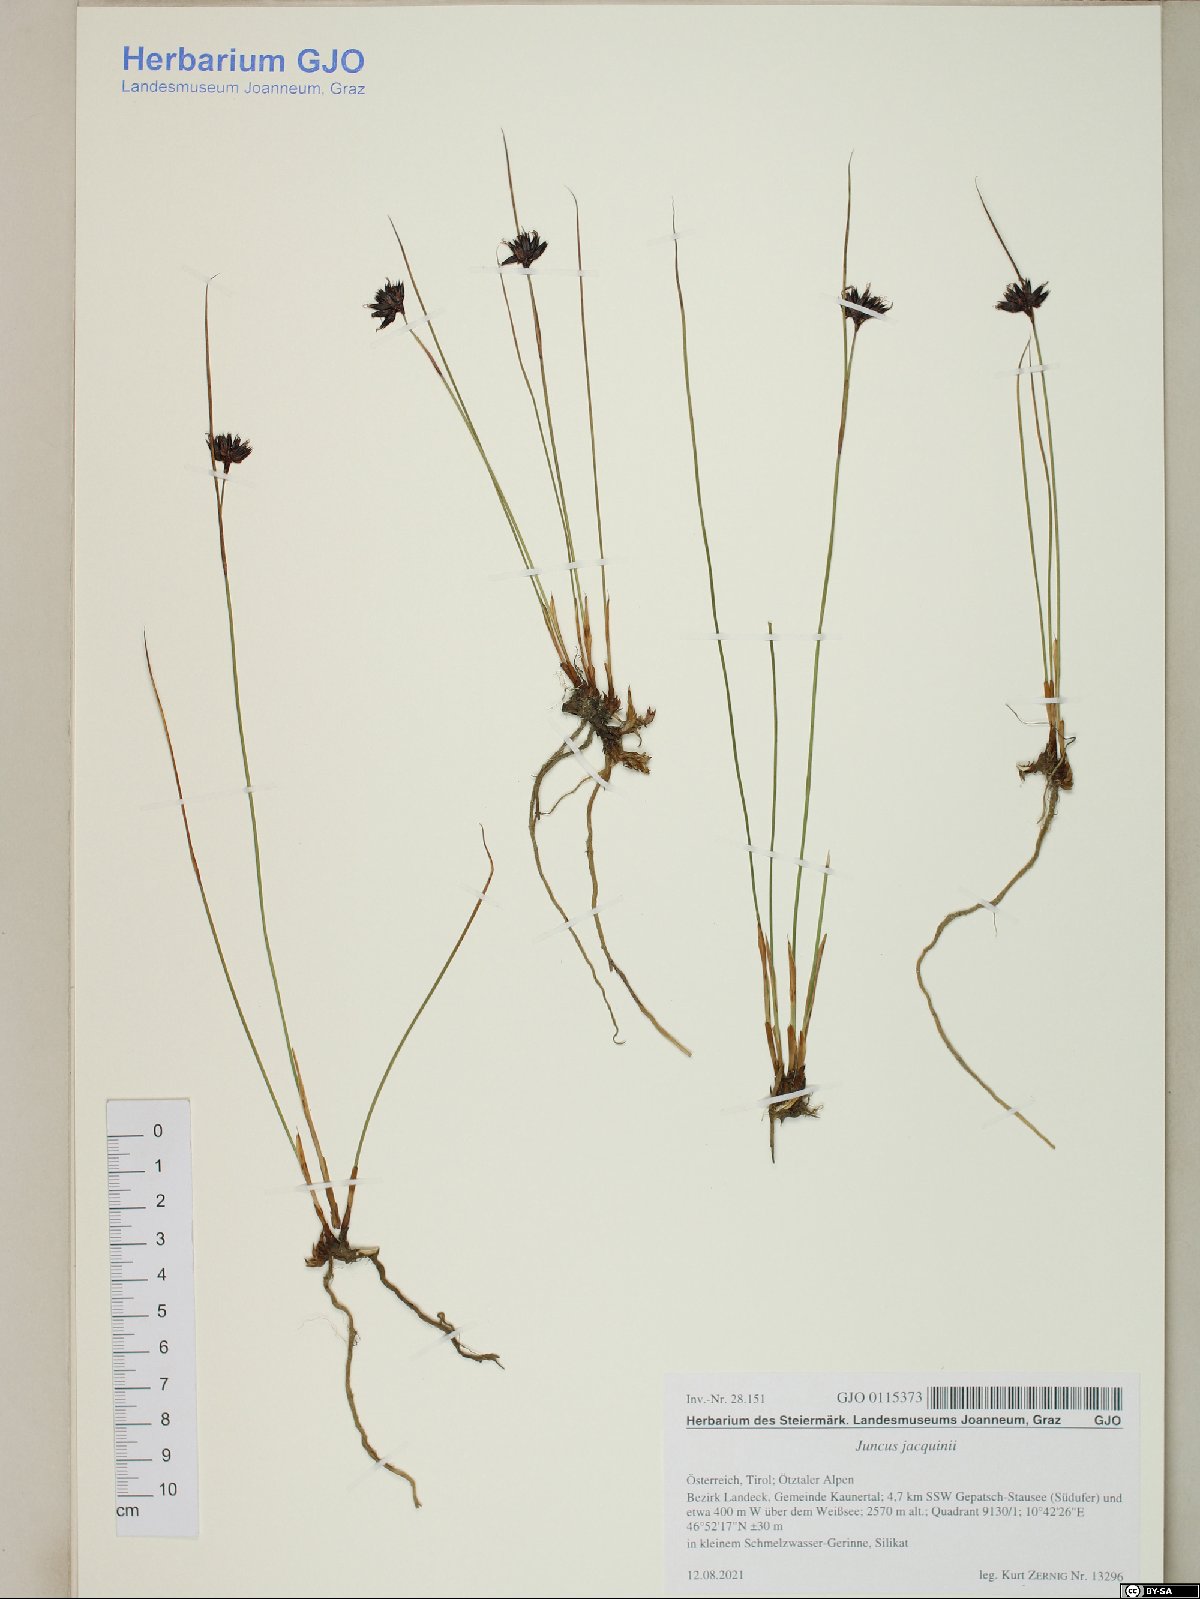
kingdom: Plantae
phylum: Tracheophyta
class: Liliopsida
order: Poales
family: Juncaceae
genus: Juncus
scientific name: Juncus jacquinii
